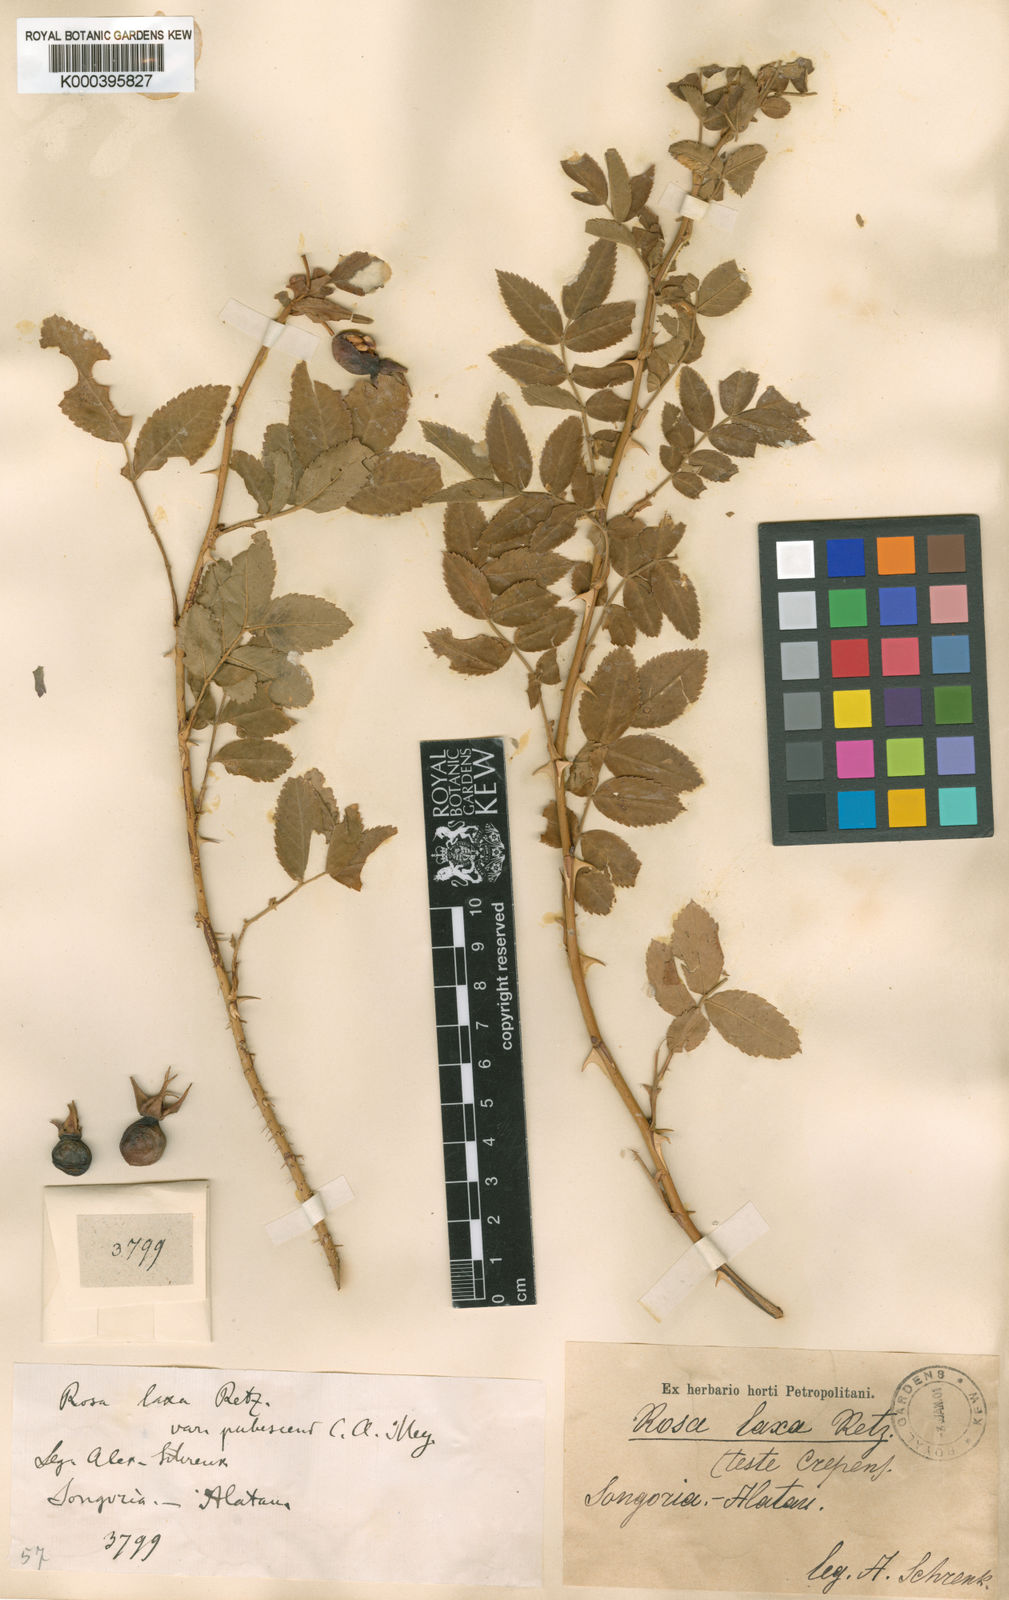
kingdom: Plantae
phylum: Tracheophyta
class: Magnoliopsida
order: Rosales
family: Rosaceae
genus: Rosa
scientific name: Rosa laxa
